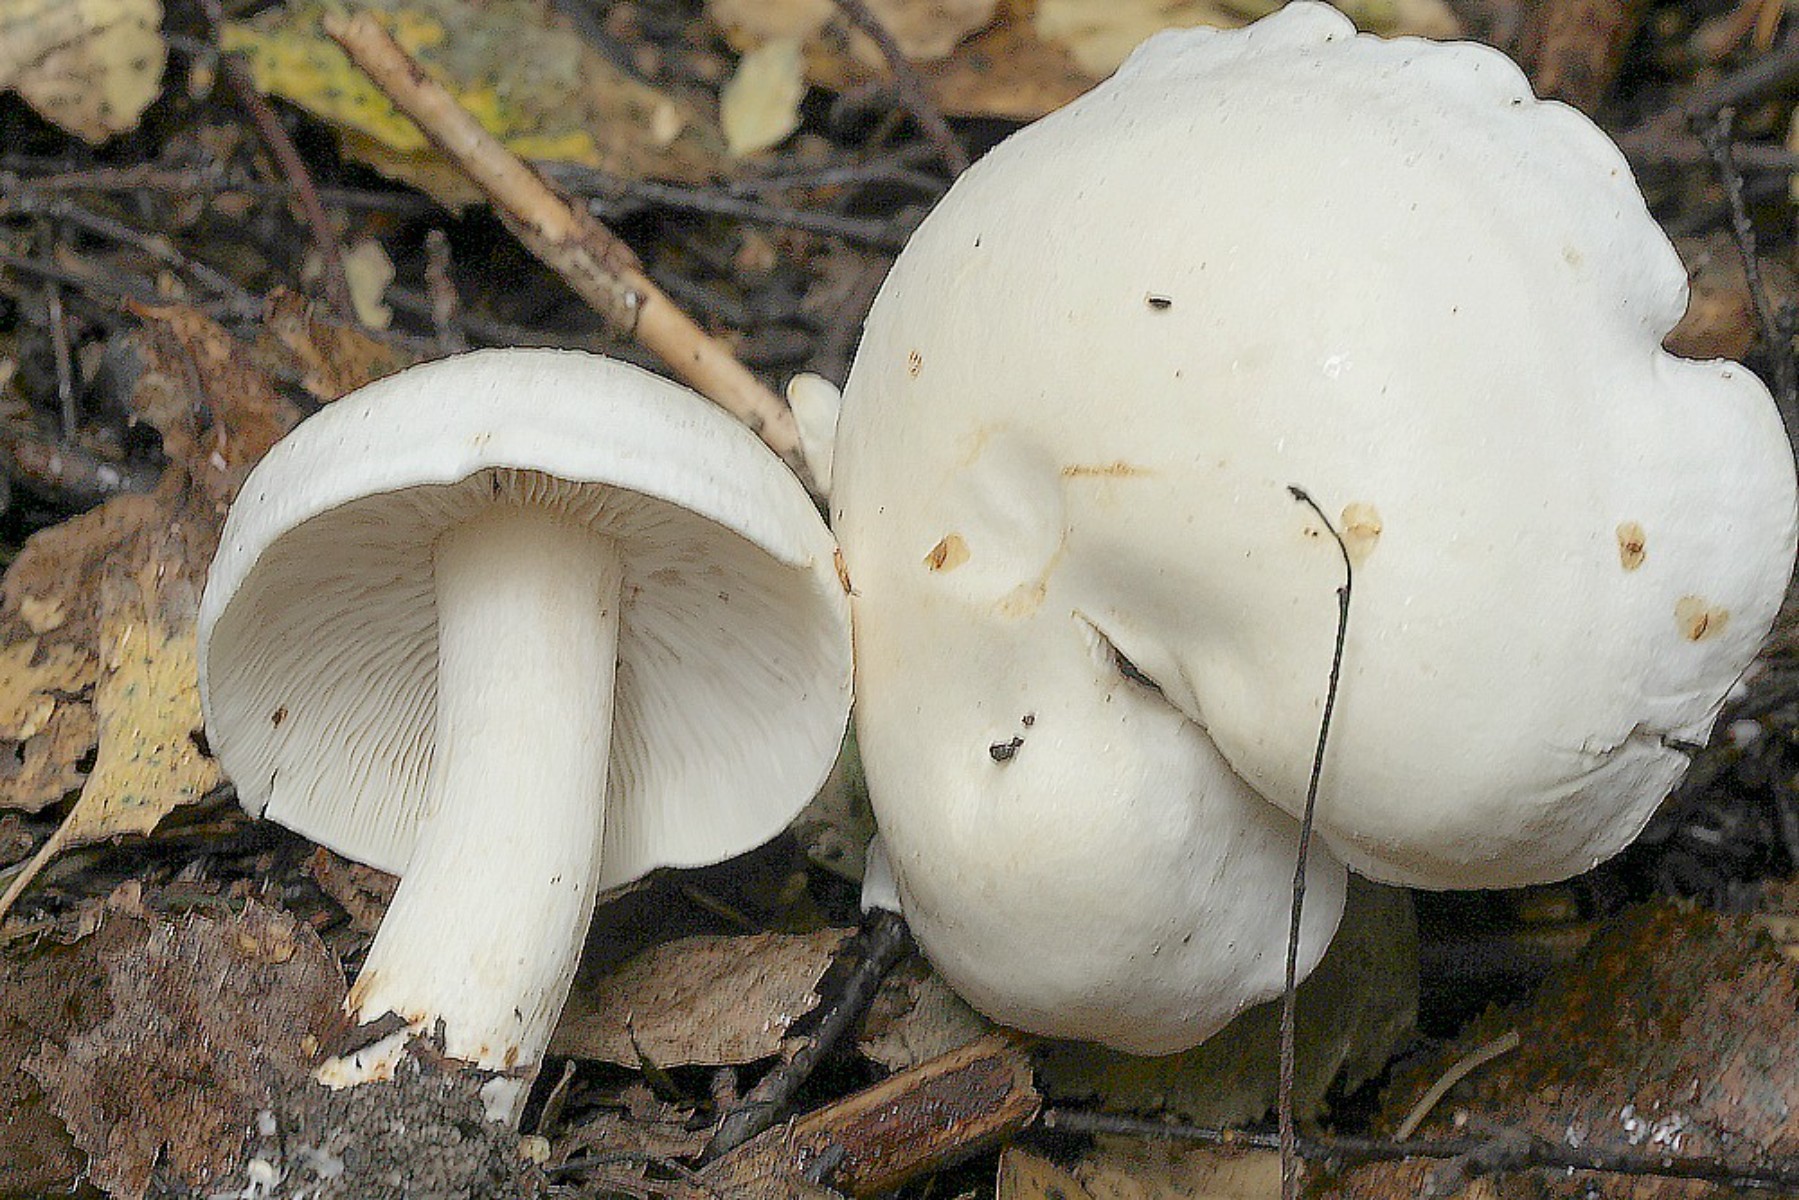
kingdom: Fungi
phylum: Basidiomycota
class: Agaricomycetes
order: Agaricales
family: Tricholomataceae
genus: Tricholoma
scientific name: Tricholoma stiparophyllum
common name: hvid ridderhat
